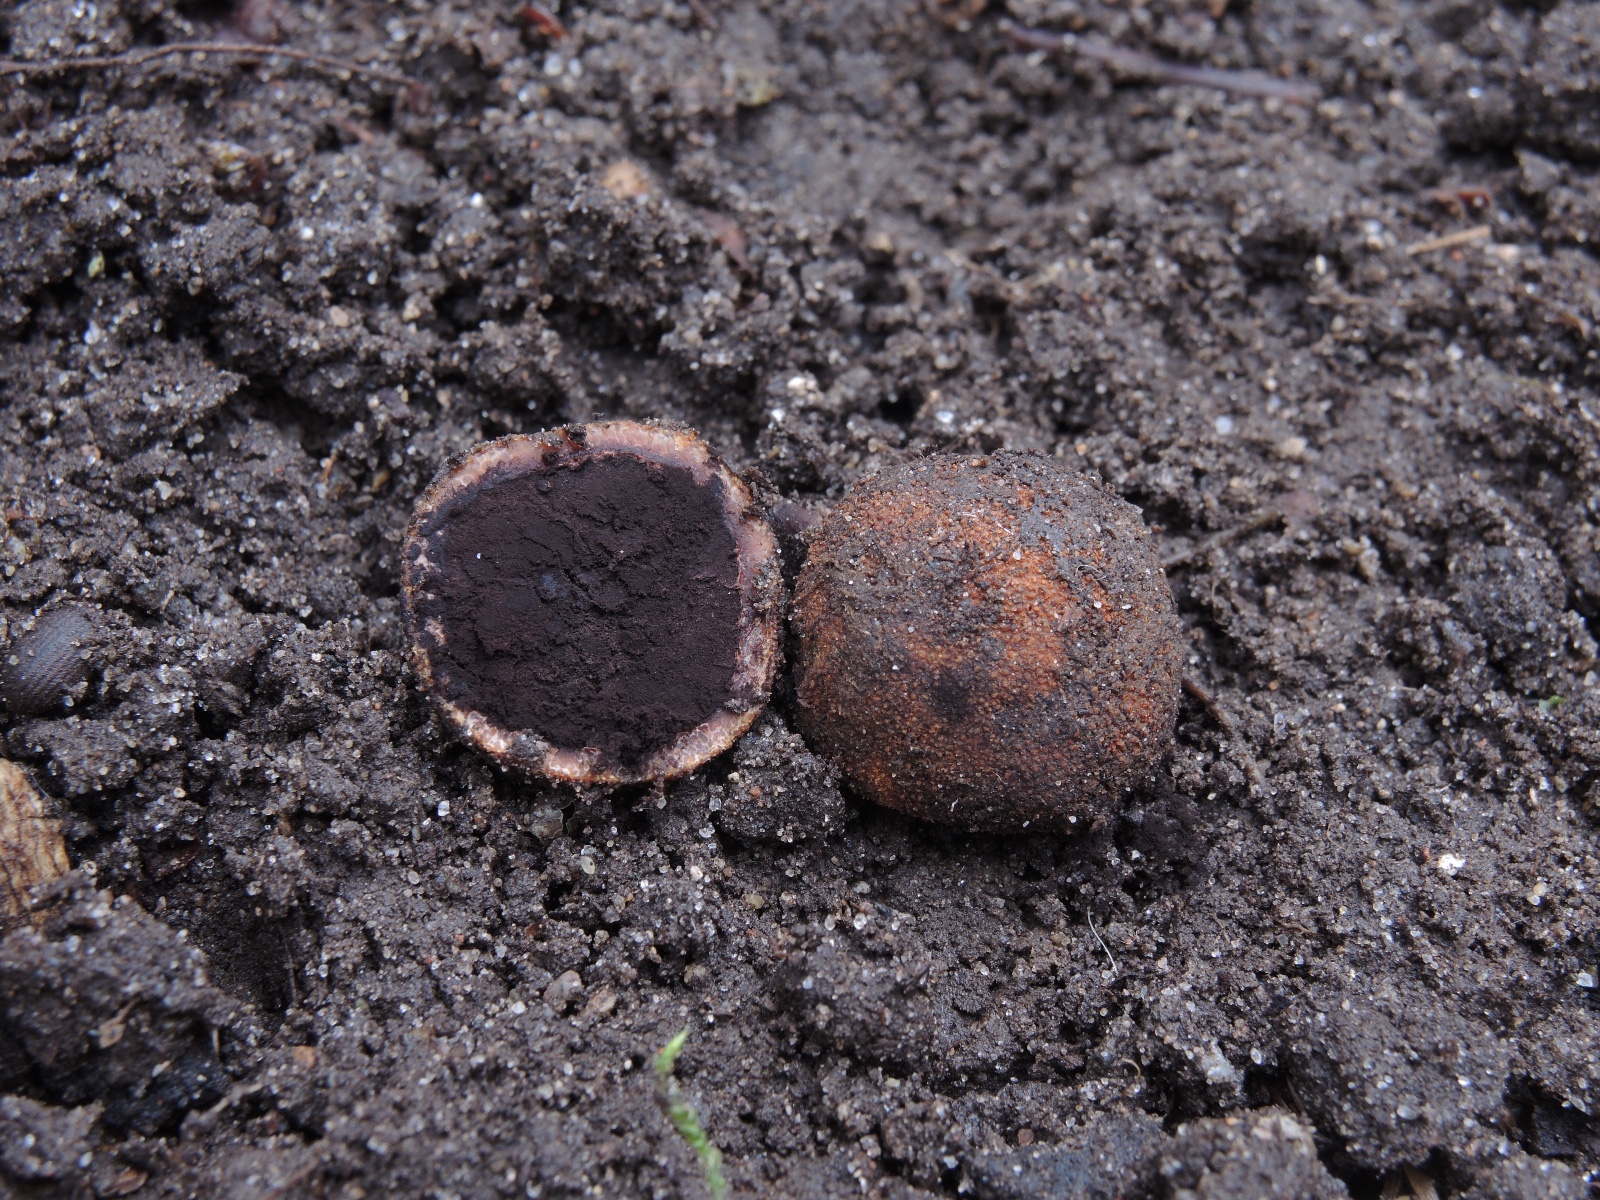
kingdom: Fungi
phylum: Ascomycota
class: Eurotiomycetes
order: Eurotiales
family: Elaphomycetaceae
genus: Elaphomyces
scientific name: Elaphomyces muricatus
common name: vortet hjortetrøffel
